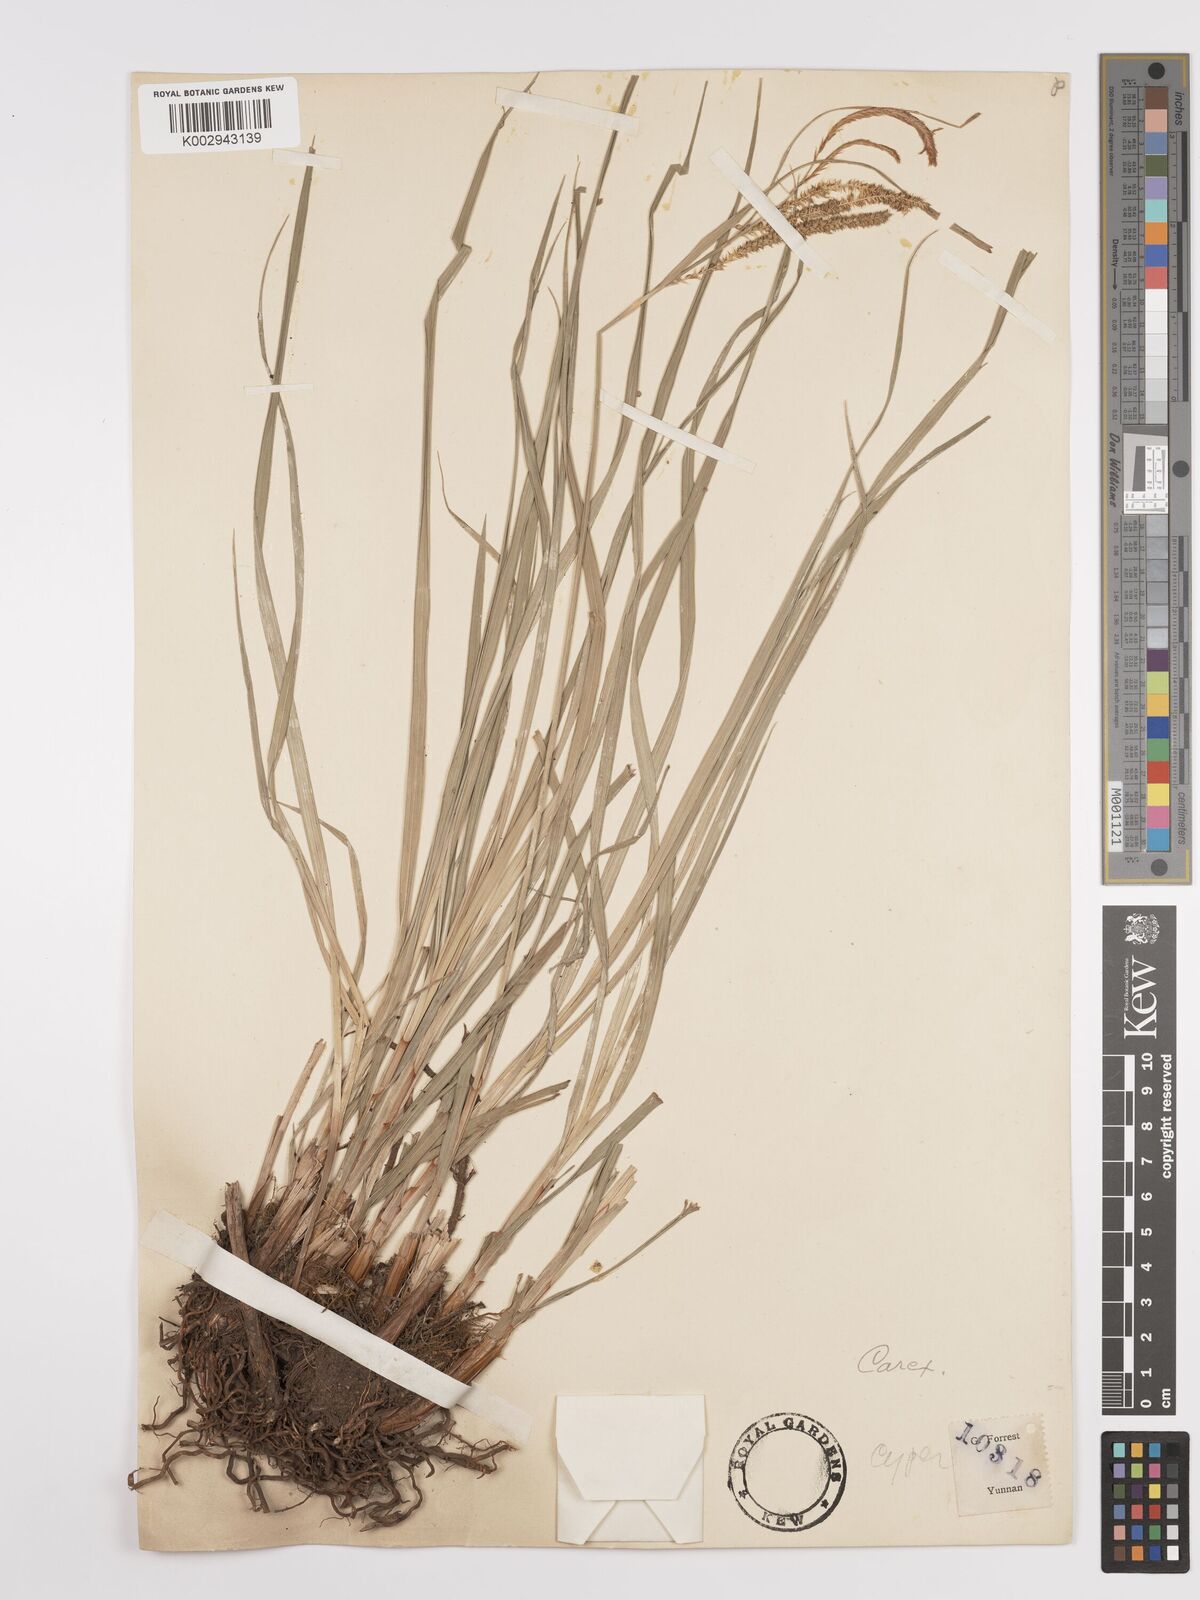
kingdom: Plantae
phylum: Tracheophyta
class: Liliopsida
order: Poales
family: Cyperaceae
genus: Carex
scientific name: Carex
